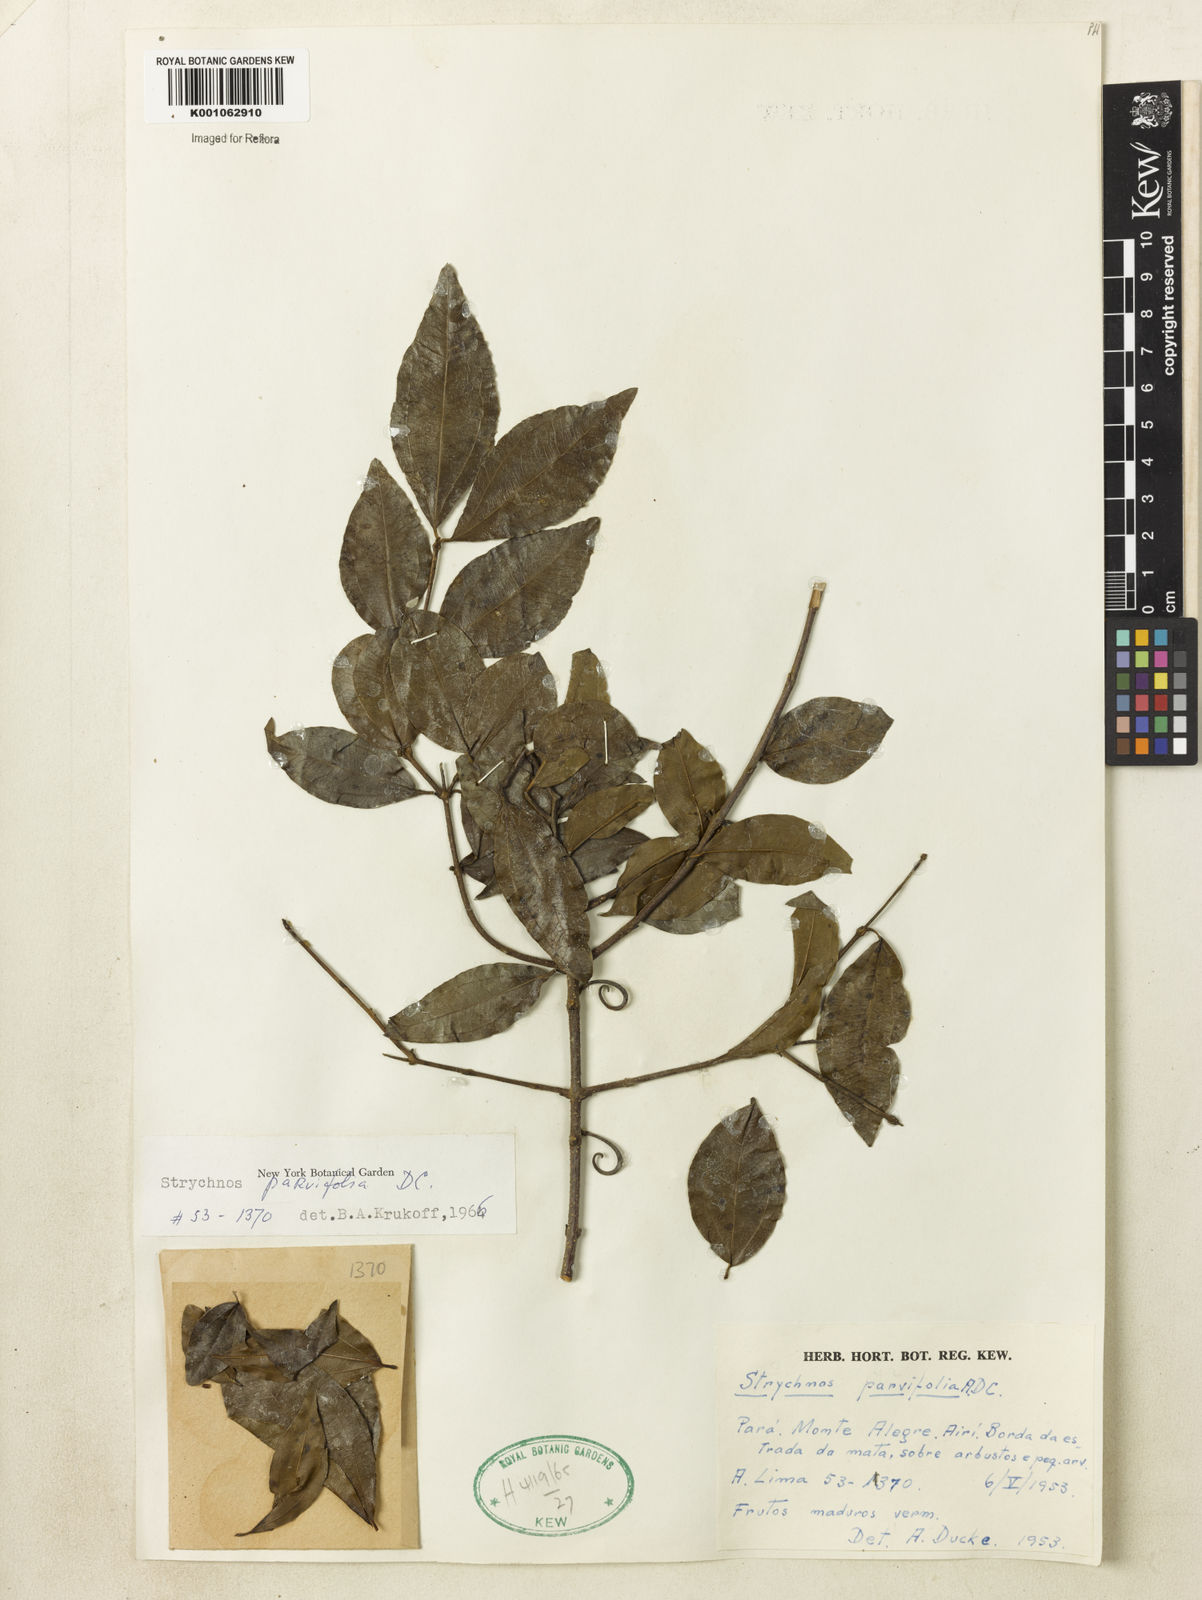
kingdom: Plantae
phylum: Tracheophyta
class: Magnoliopsida
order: Gentianales
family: Loganiaceae
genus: Strychnos
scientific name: Strychnos parvifolia
